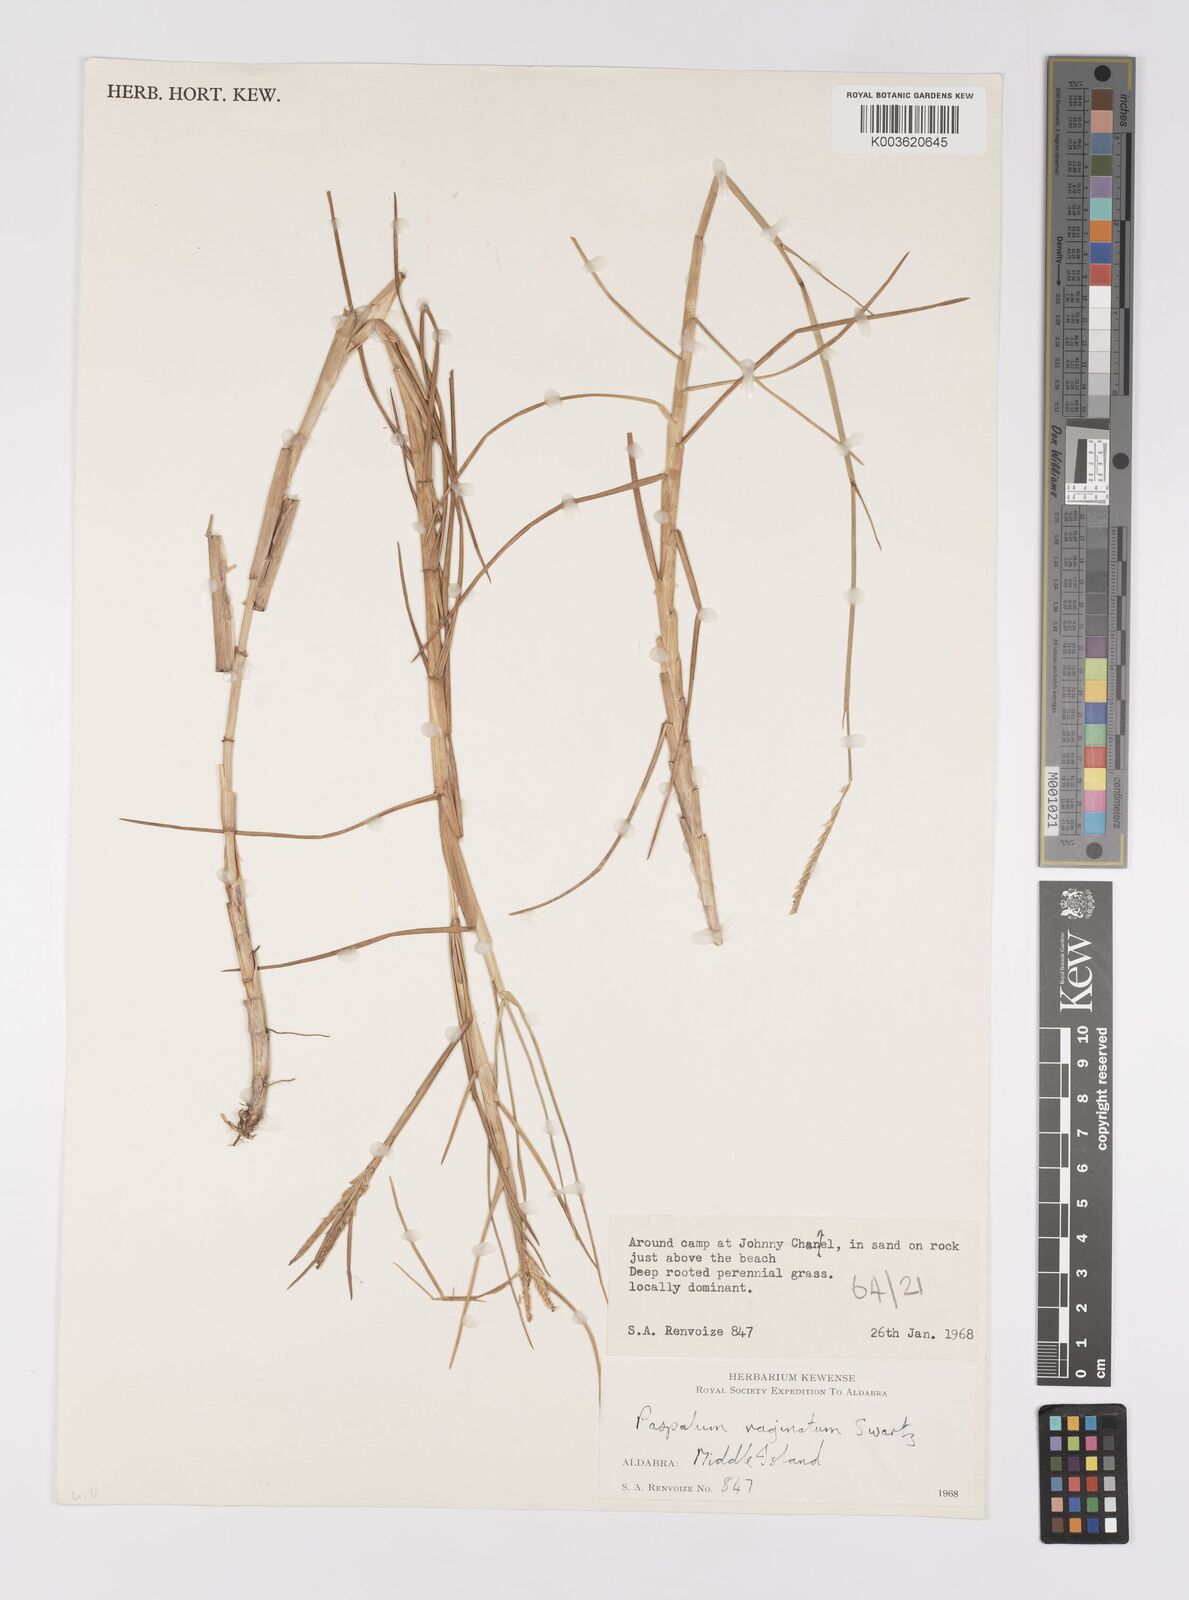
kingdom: Plantae
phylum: Tracheophyta
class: Liliopsida
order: Poales
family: Poaceae
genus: Paspalum
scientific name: Paspalum vaginatum
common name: Seashore paspalum
